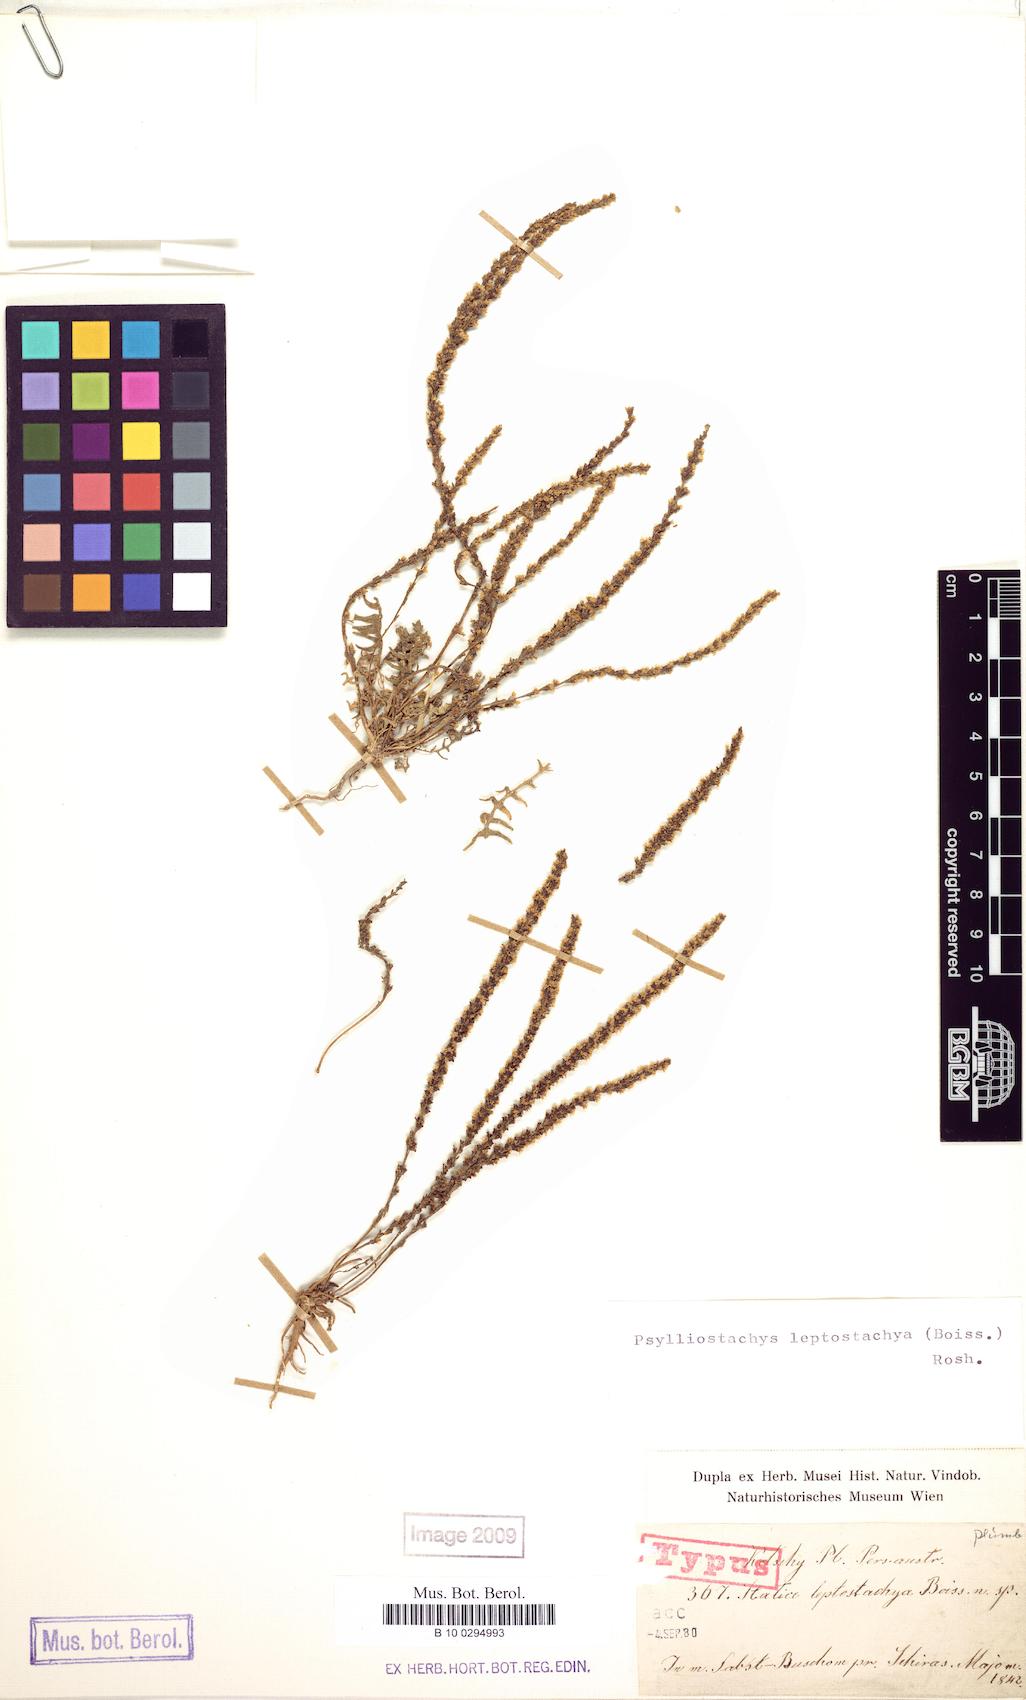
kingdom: Plantae
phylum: Tracheophyta
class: Magnoliopsida
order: Caryophyllales
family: Plumbaginaceae
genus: Psylliostachys
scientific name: Psylliostachys leptostachyus
